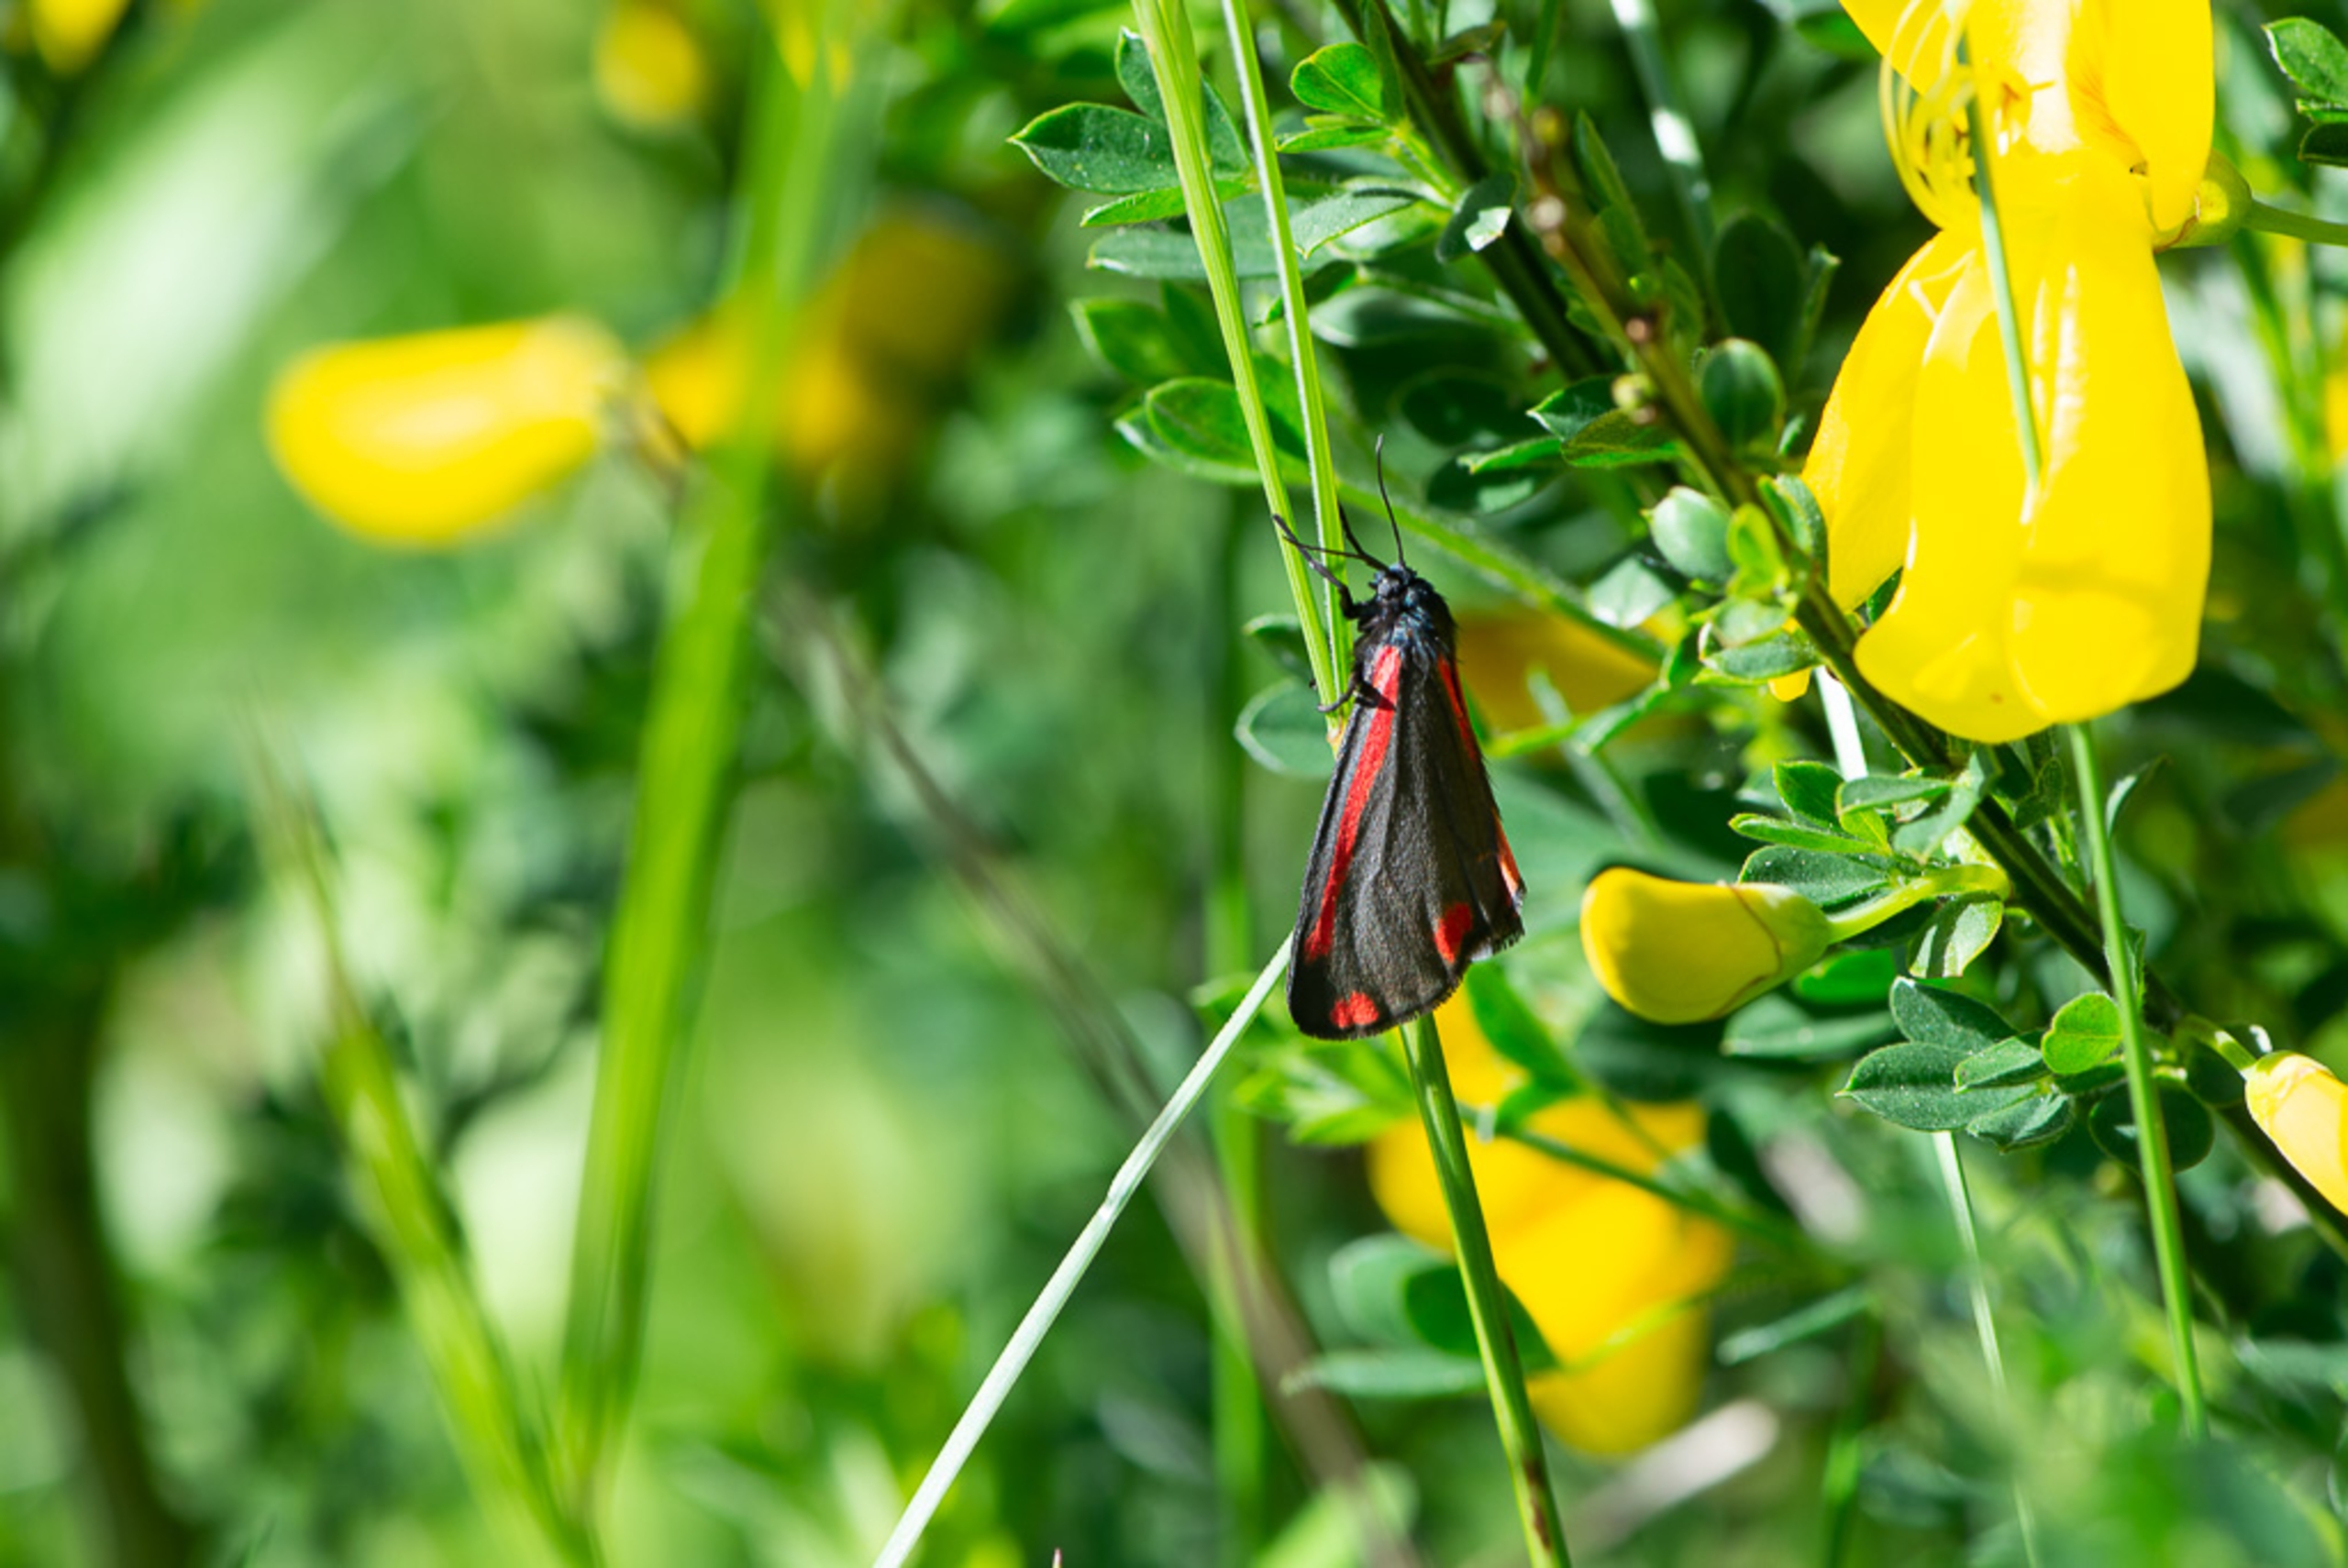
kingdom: Animalia
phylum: Arthropoda
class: Insecta
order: Lepidoptera
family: Erebidae
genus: Tyria
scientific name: Tyria jacobaeae
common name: Blodplet
